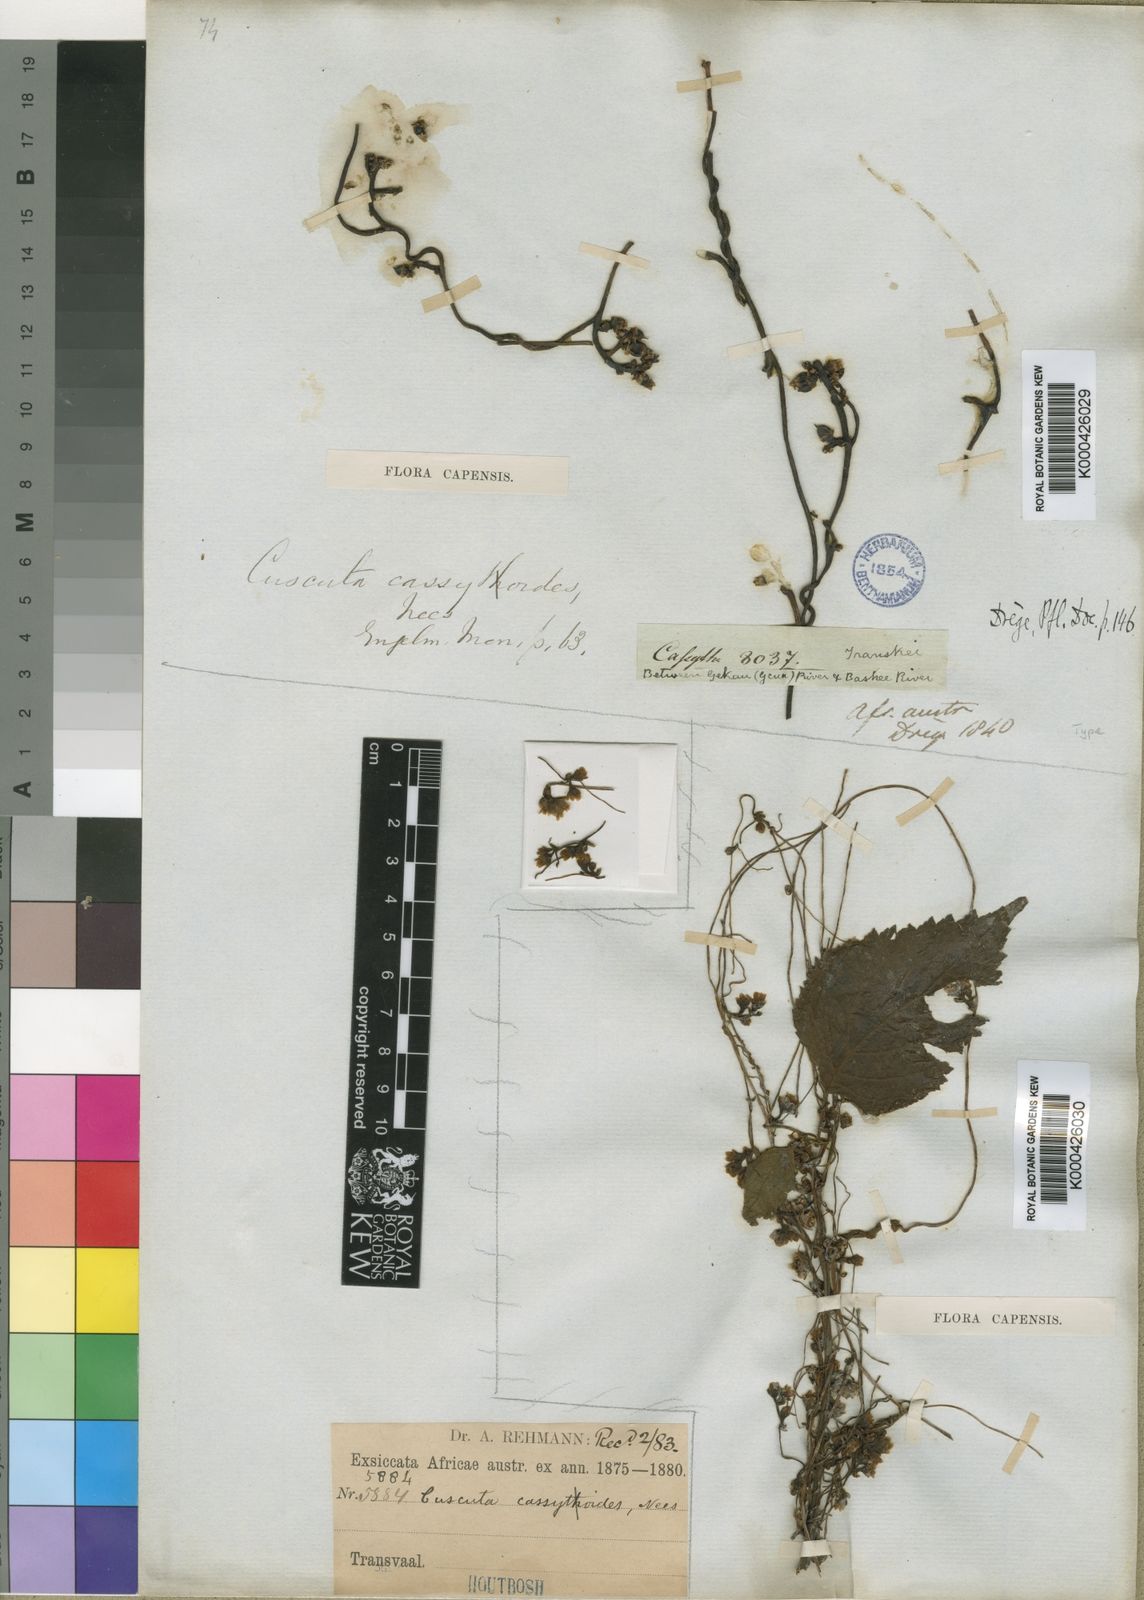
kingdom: Plantae
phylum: Tracheophyta
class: Magnoliopsida
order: Solanales
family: Convolvulaceae
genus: Cuscuta
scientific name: Cuscuta
